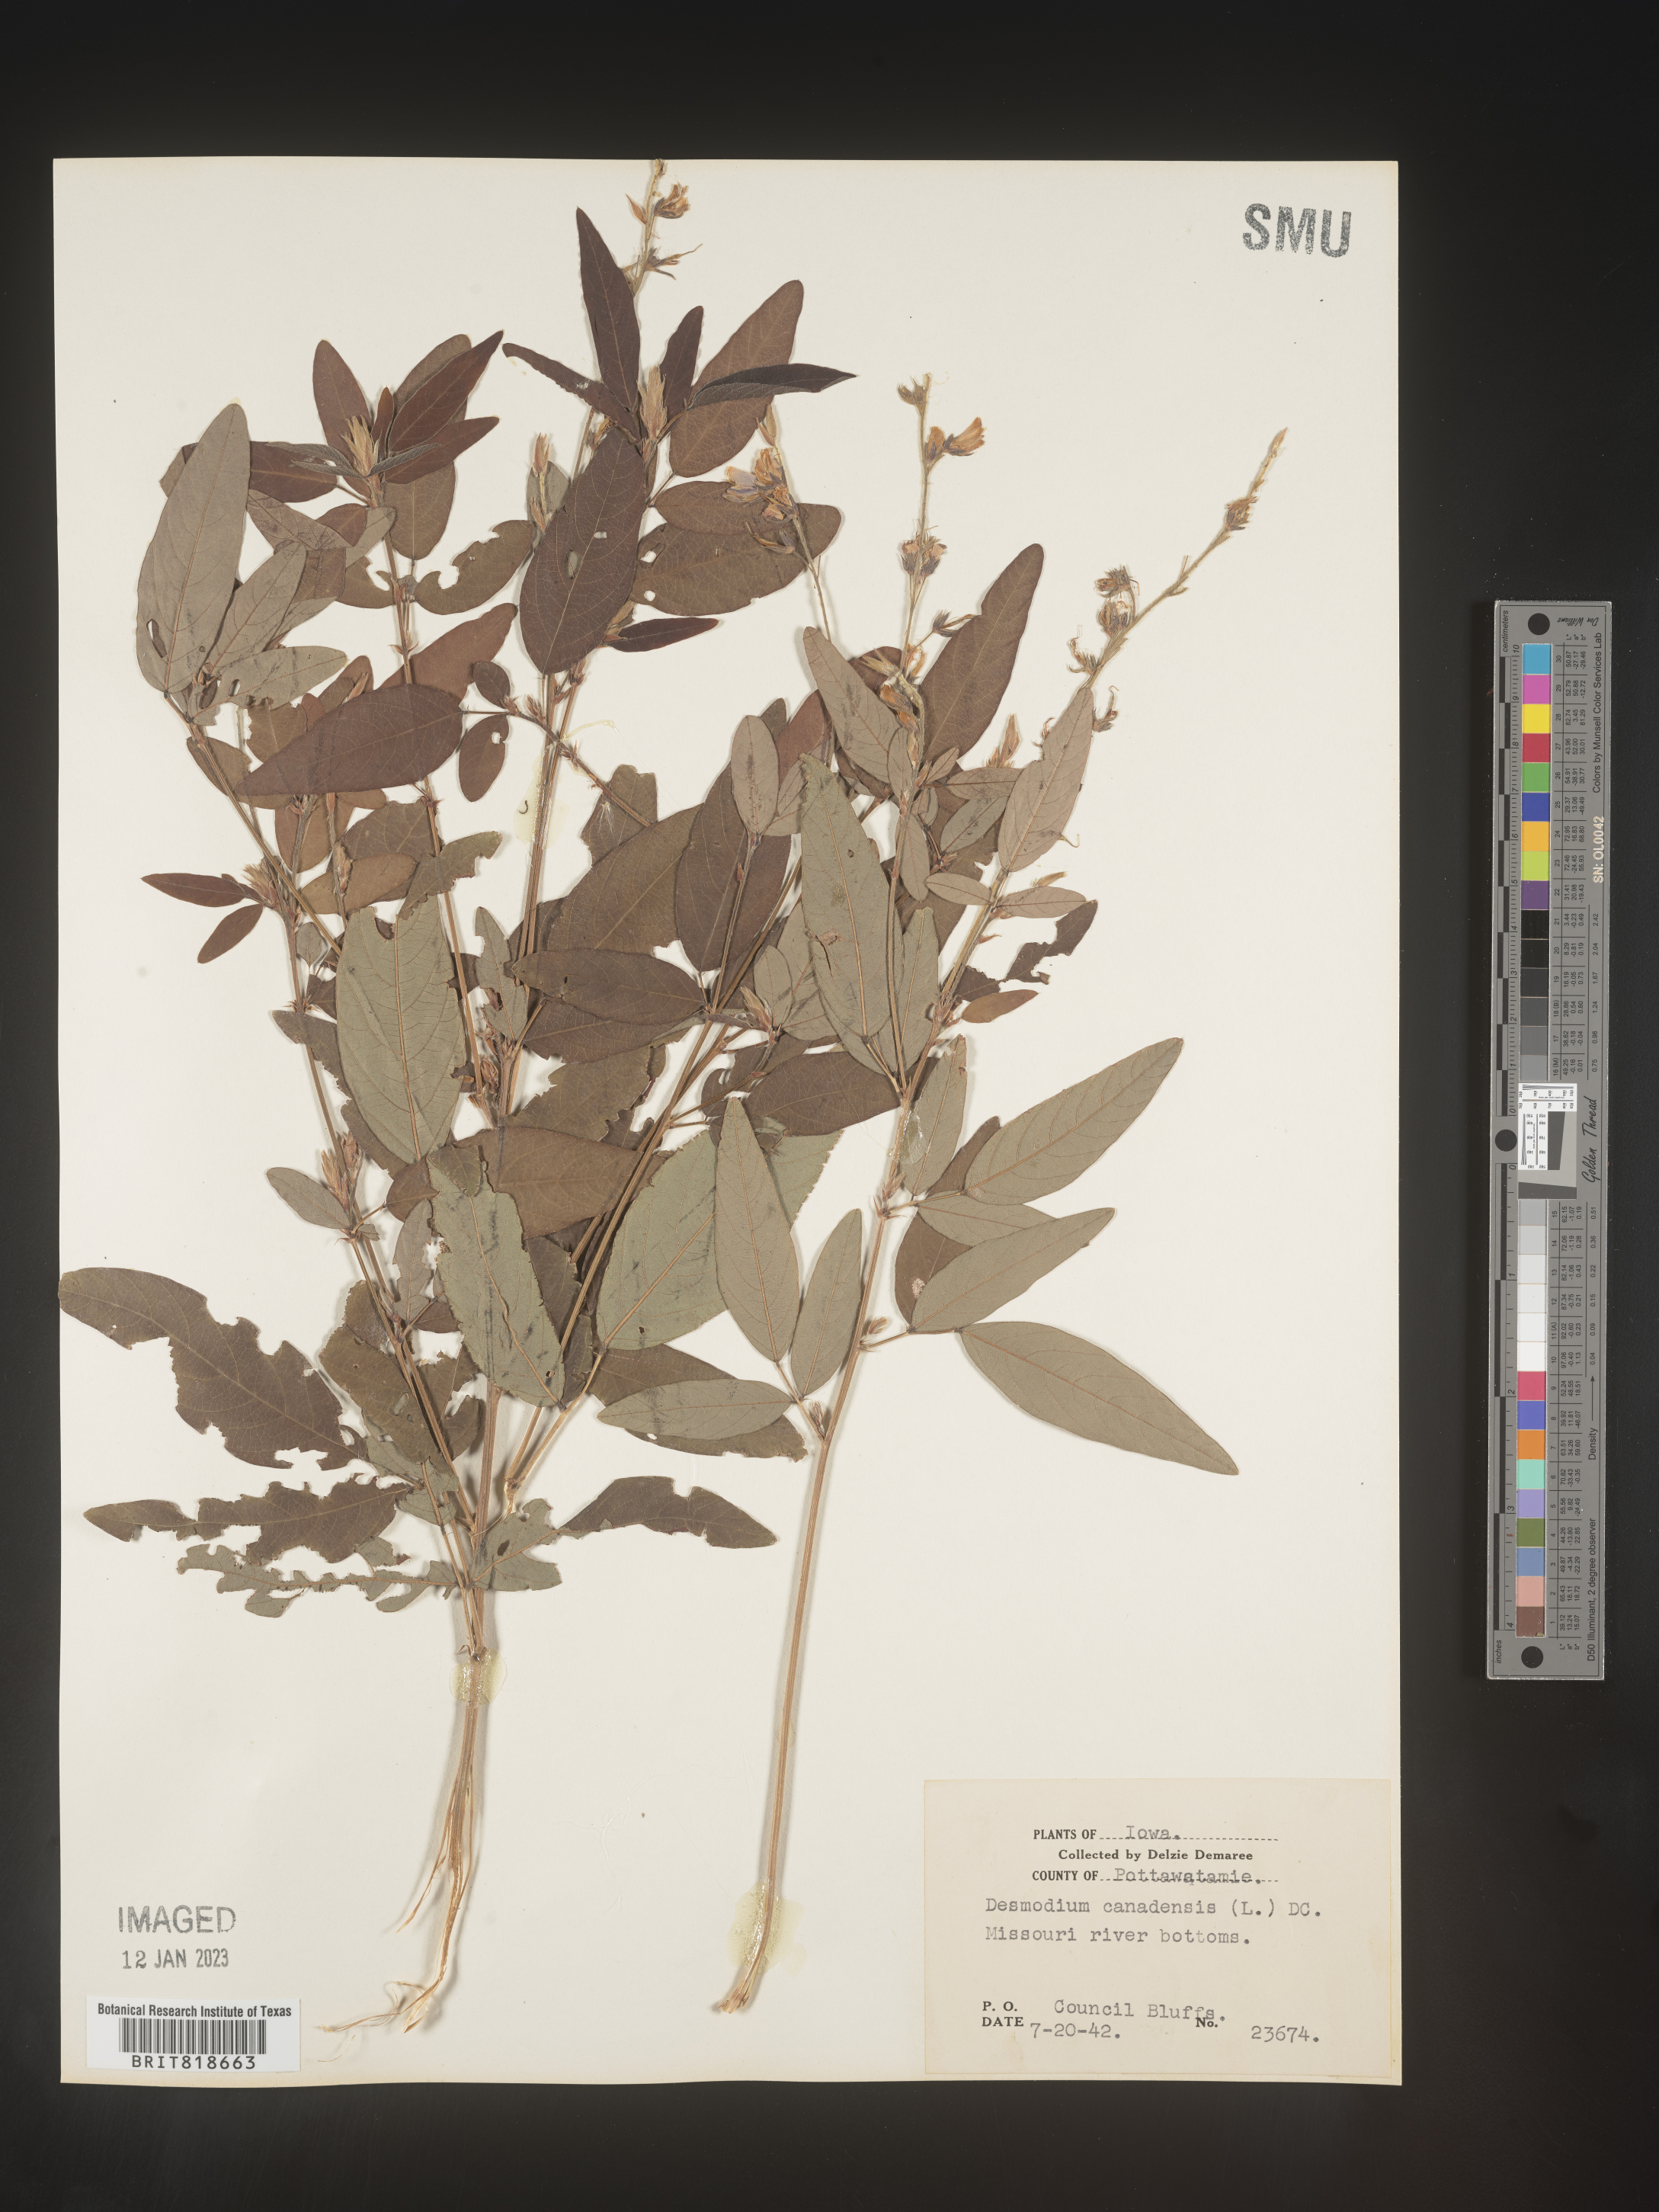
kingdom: Plantae
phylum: Tracheophyta
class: Magnoliopsida
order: Fabales
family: Fabaceae
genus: Desmodium
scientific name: Desmodium canadense
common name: Canada tick-trefoil
